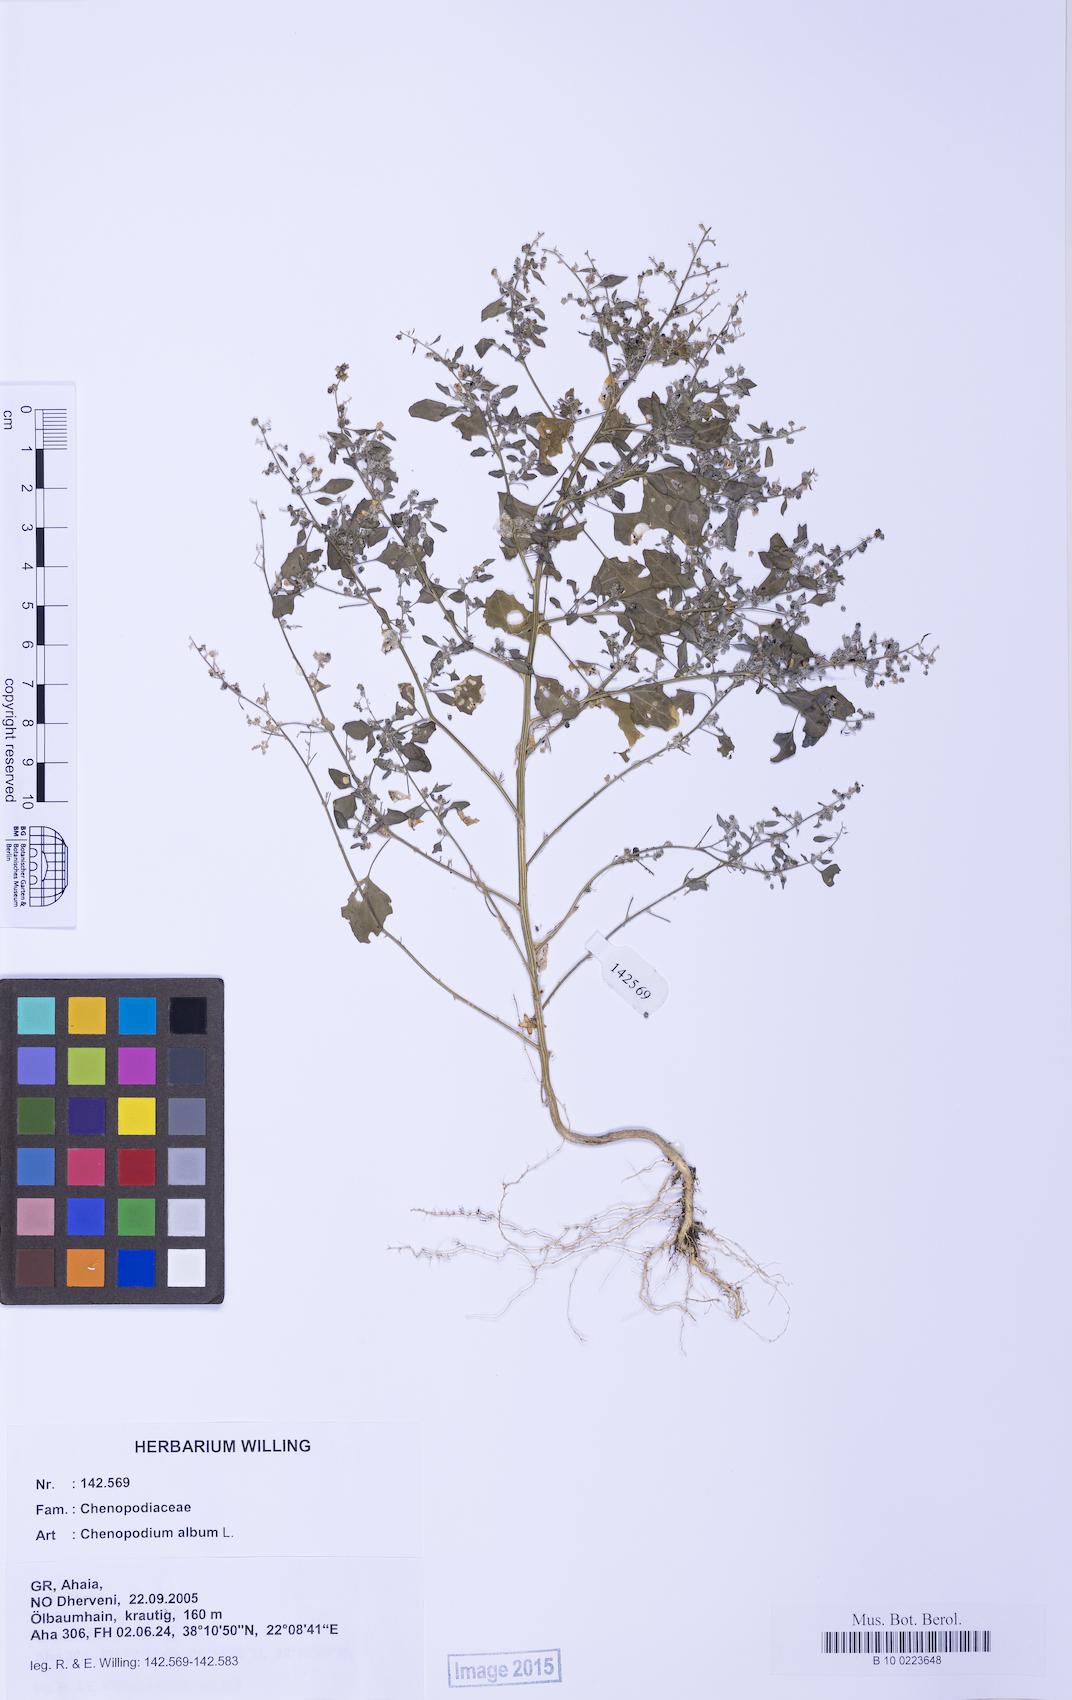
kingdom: Plantae
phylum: Tracheophyta
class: Magnoliopsida
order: Caryophyllales
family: Amaranthaceae
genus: Chenopodium
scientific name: Chenopodium album
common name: Fat-hen
